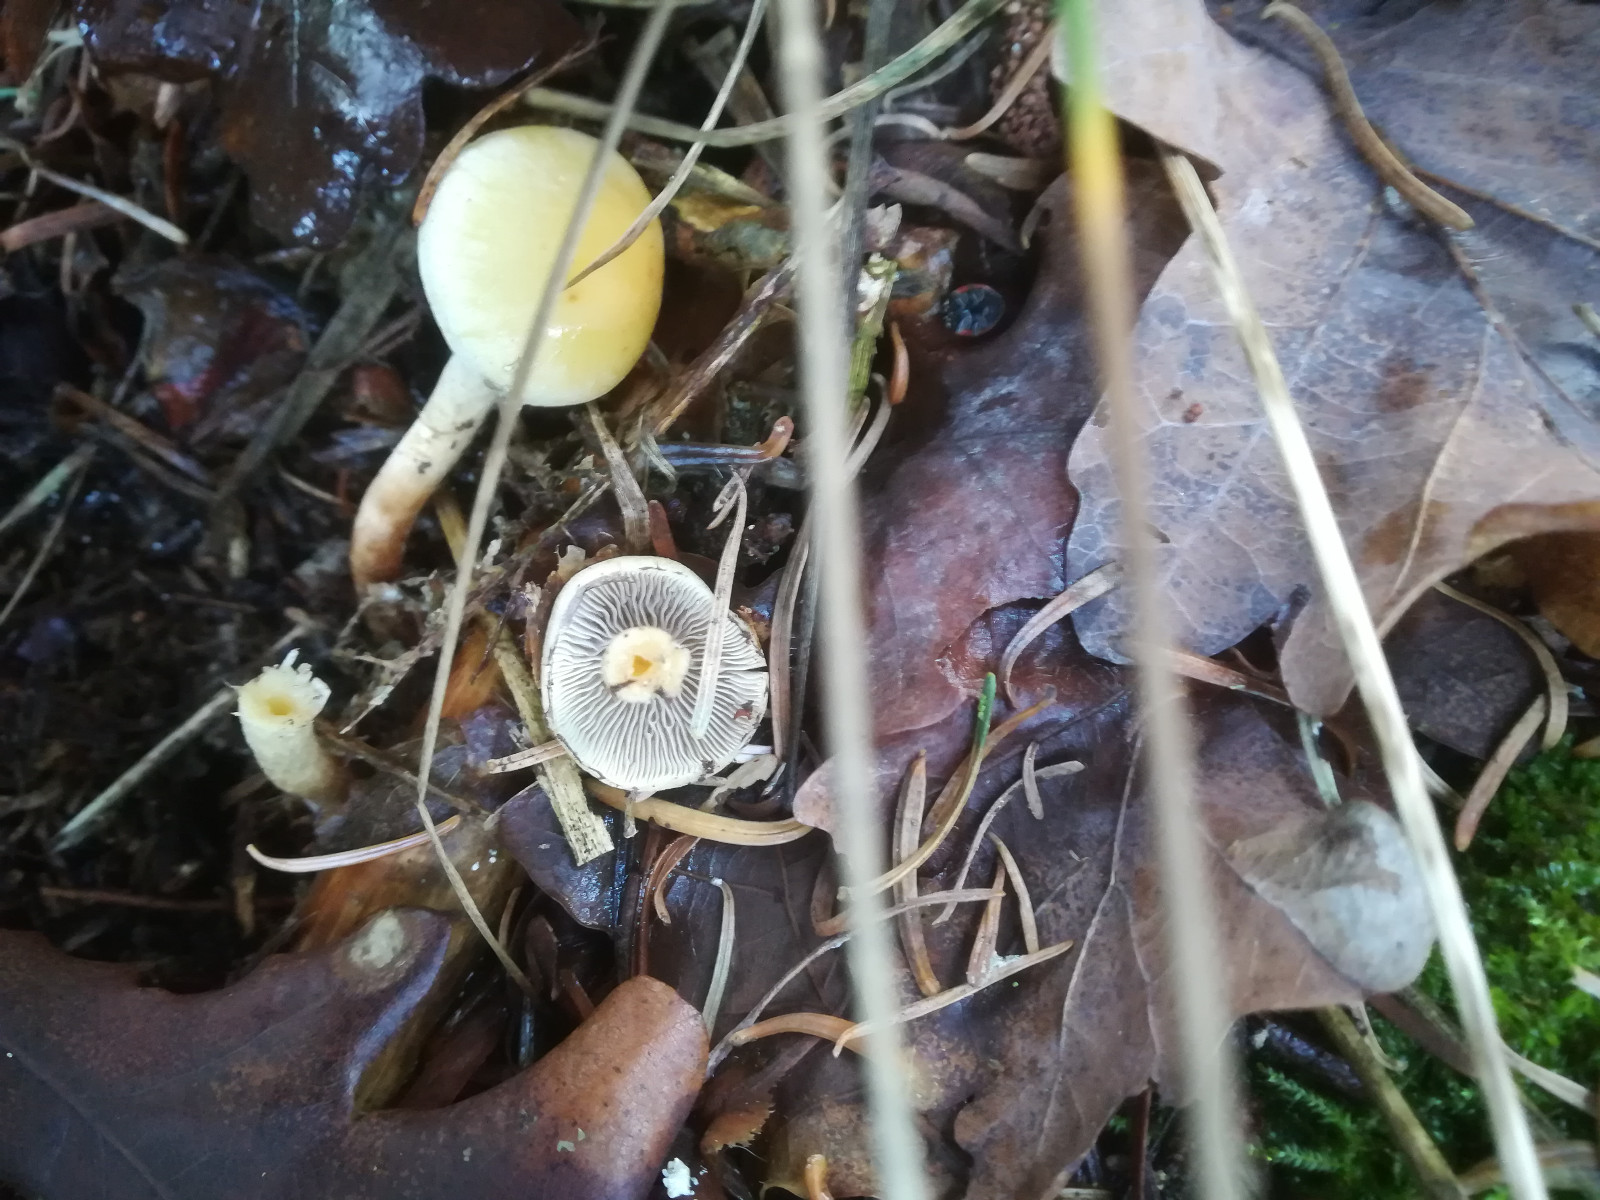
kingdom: Fungi
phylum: Basidiomycota
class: Agaricomycetes
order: Agaricales
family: Strophariaceae
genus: Hypholoma
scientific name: Hypholoma capnoides
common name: gran-svovlhat
